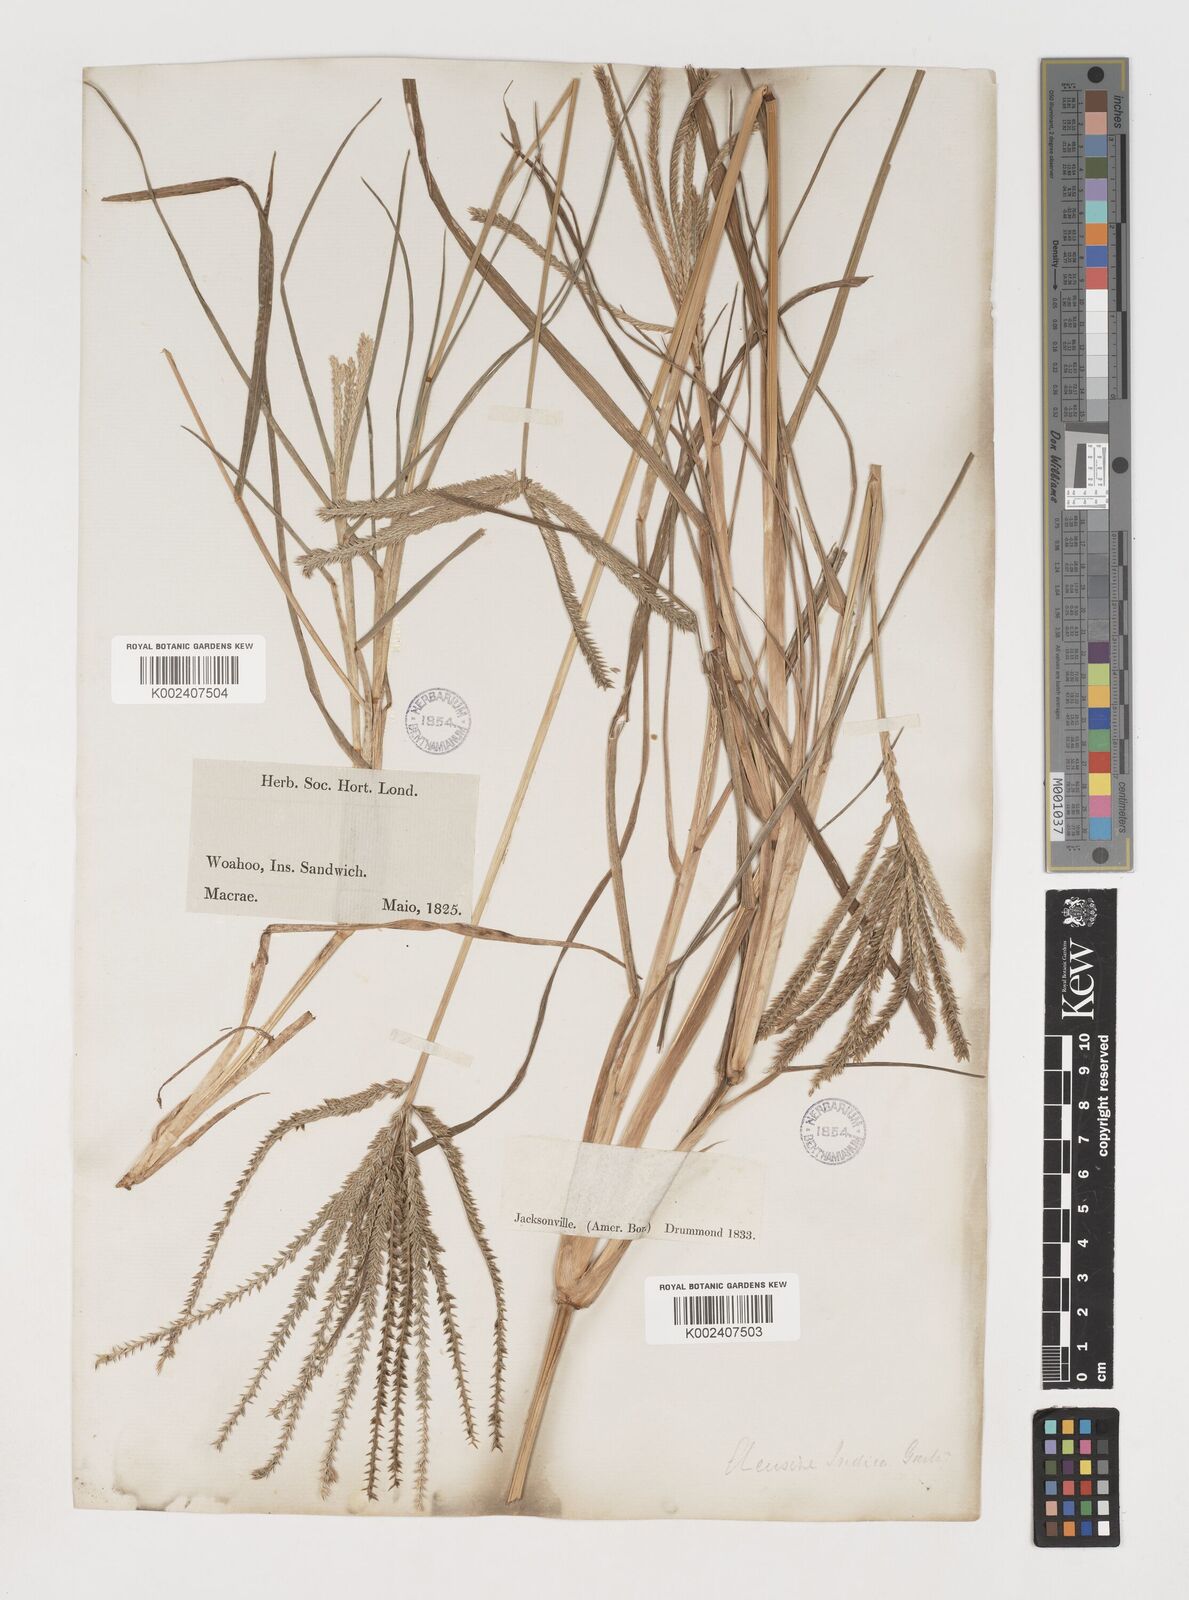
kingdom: Plantae
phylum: Tracheophyta
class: Liliopsida
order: Poales
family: Poaceae
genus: Eleusine
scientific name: Eleusine indica
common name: Yard-grass
